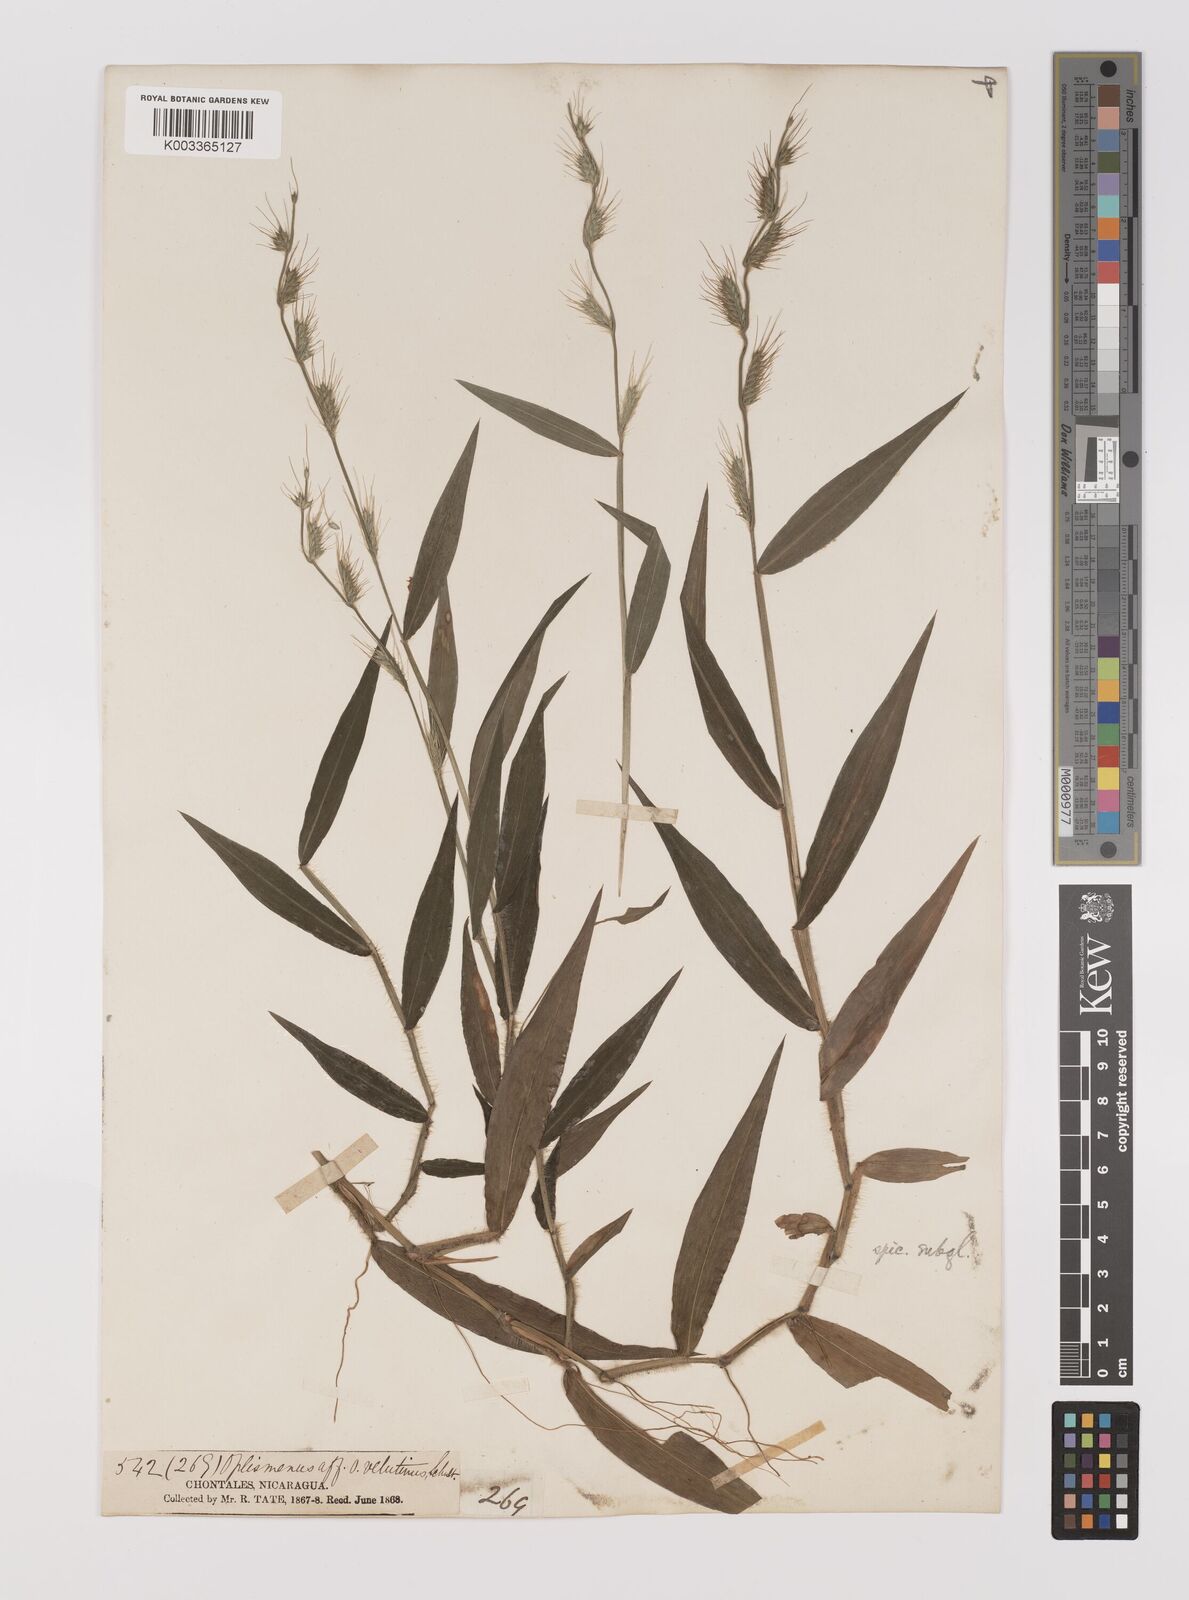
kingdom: Plantae
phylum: Tracheophyta
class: Liliopsida
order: Poales
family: Poaceae
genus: Oplismenus
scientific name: Oplismenus hirtellus
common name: Basketgrass
